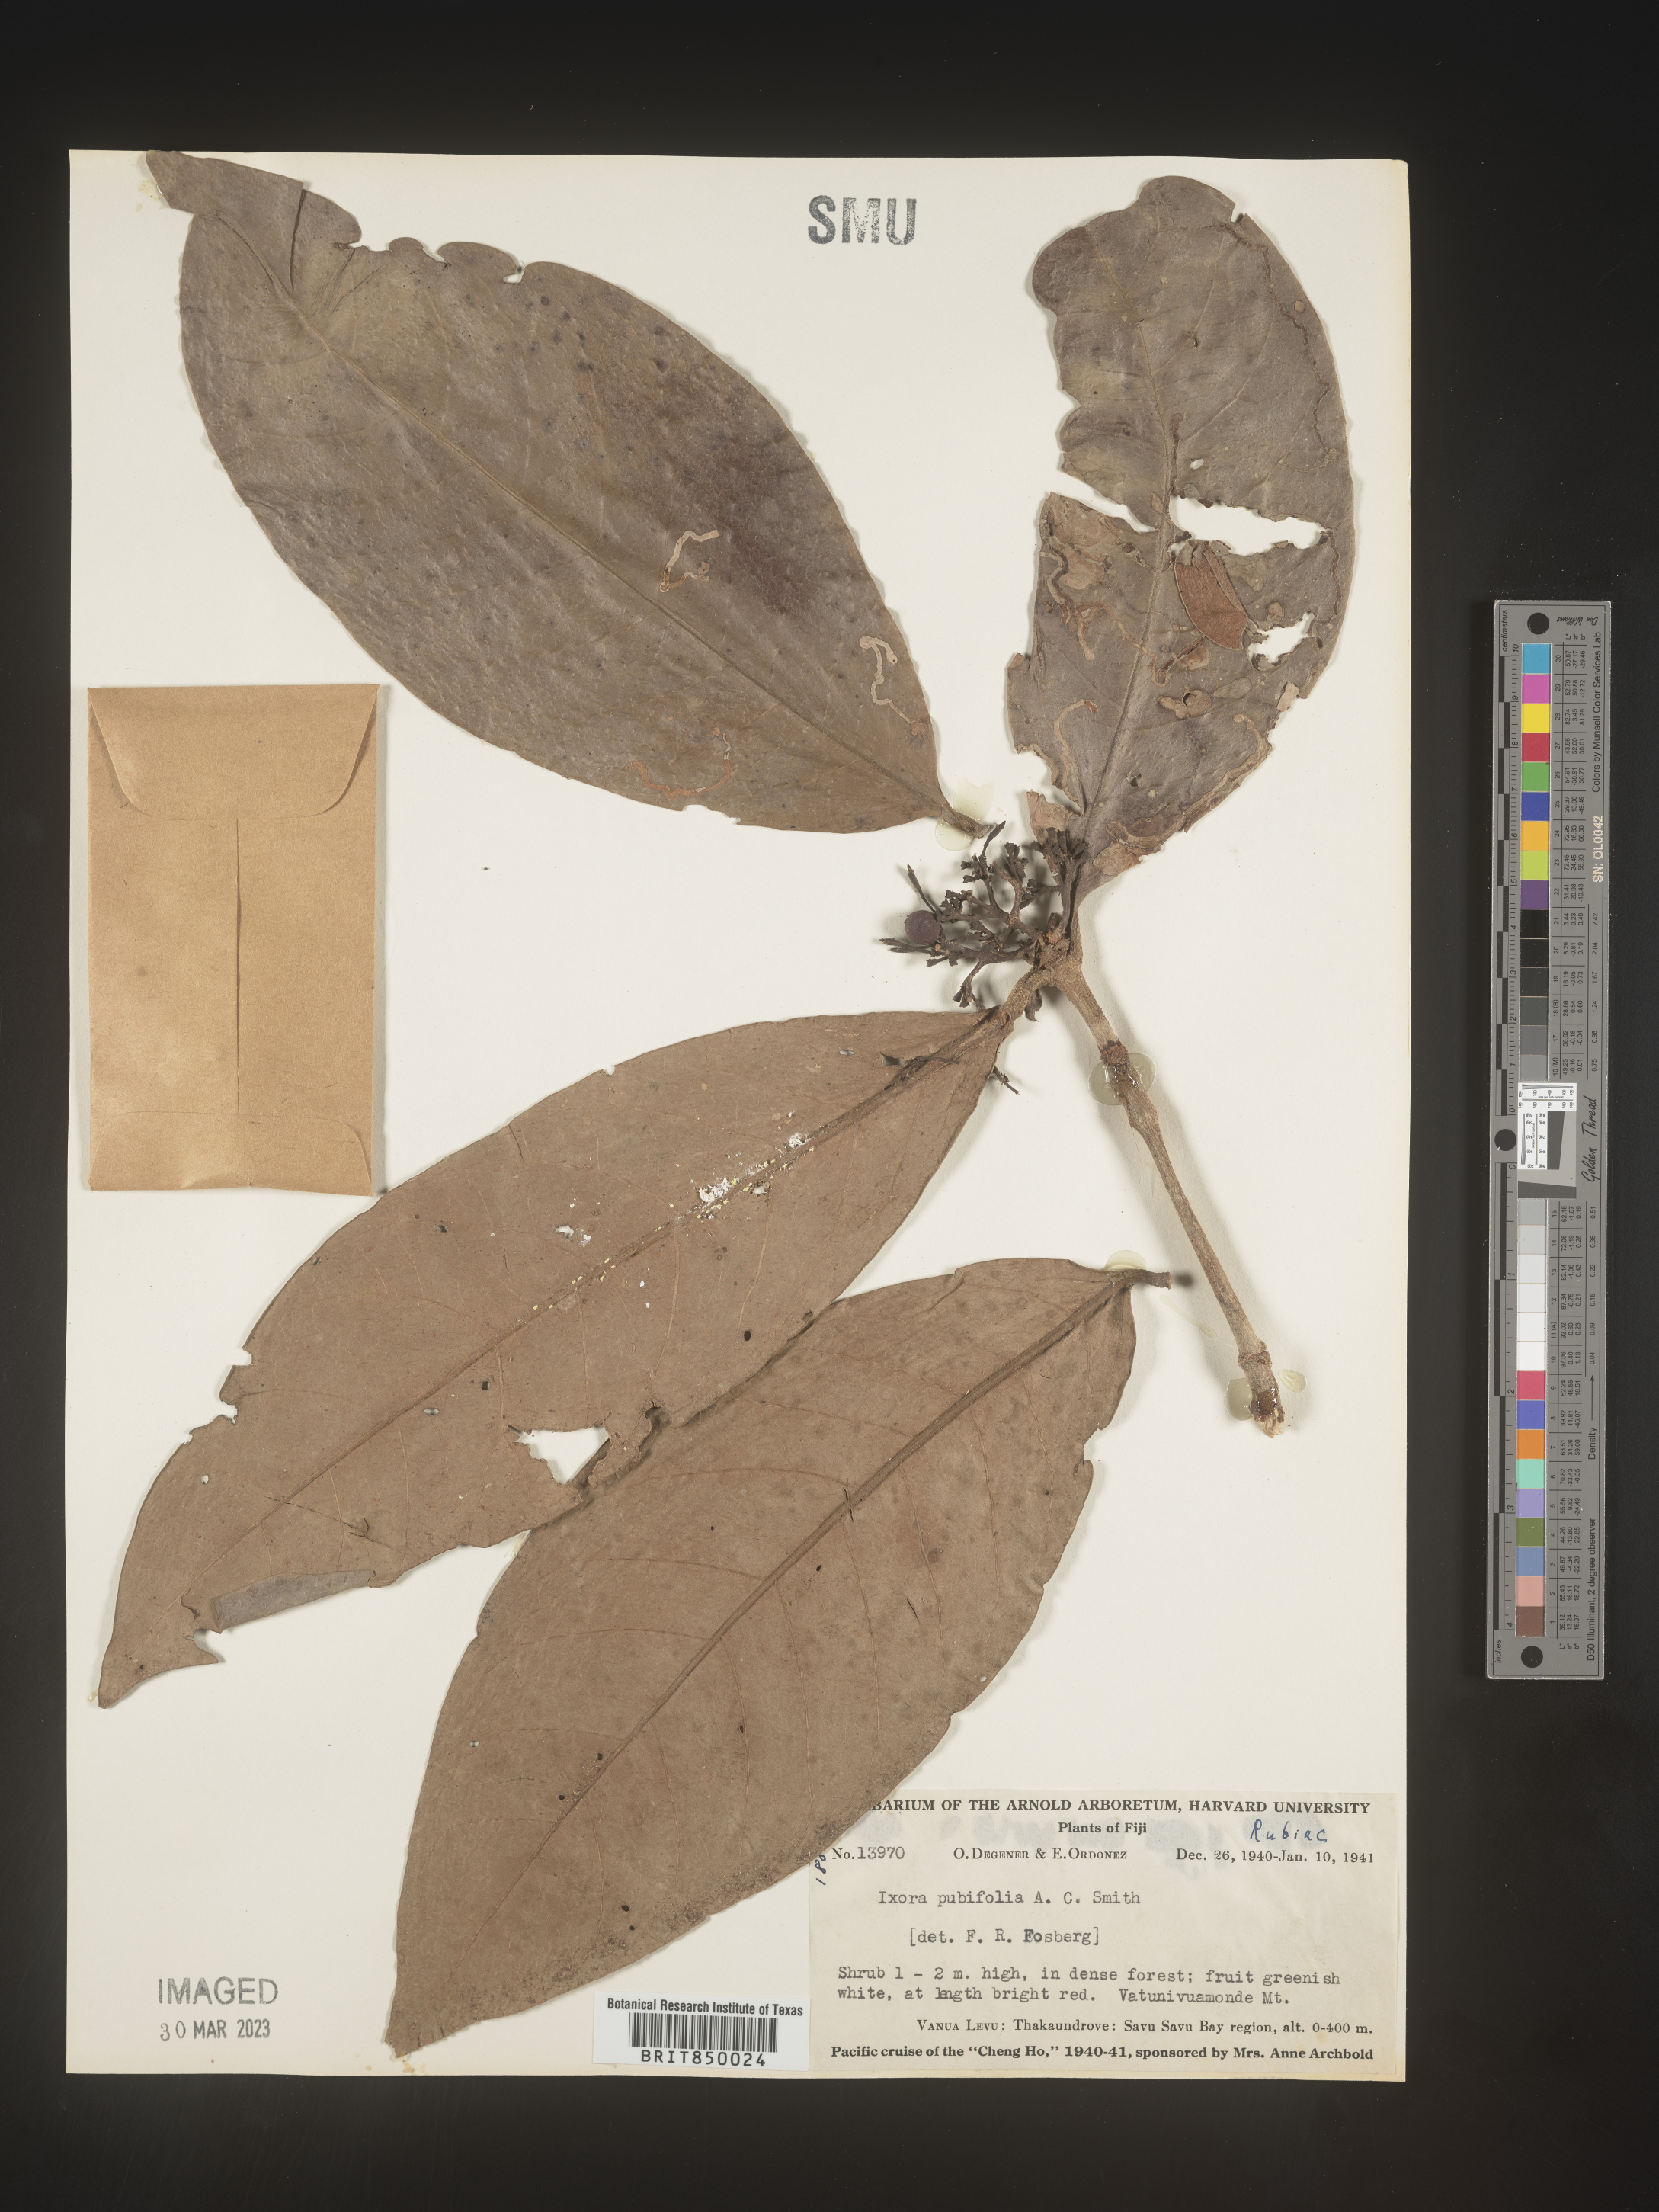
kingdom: Plantae
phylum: Tracheophyta
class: Magnoliopsida
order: Gentianales
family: Rubiaceae
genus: Ixora
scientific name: Ixora
